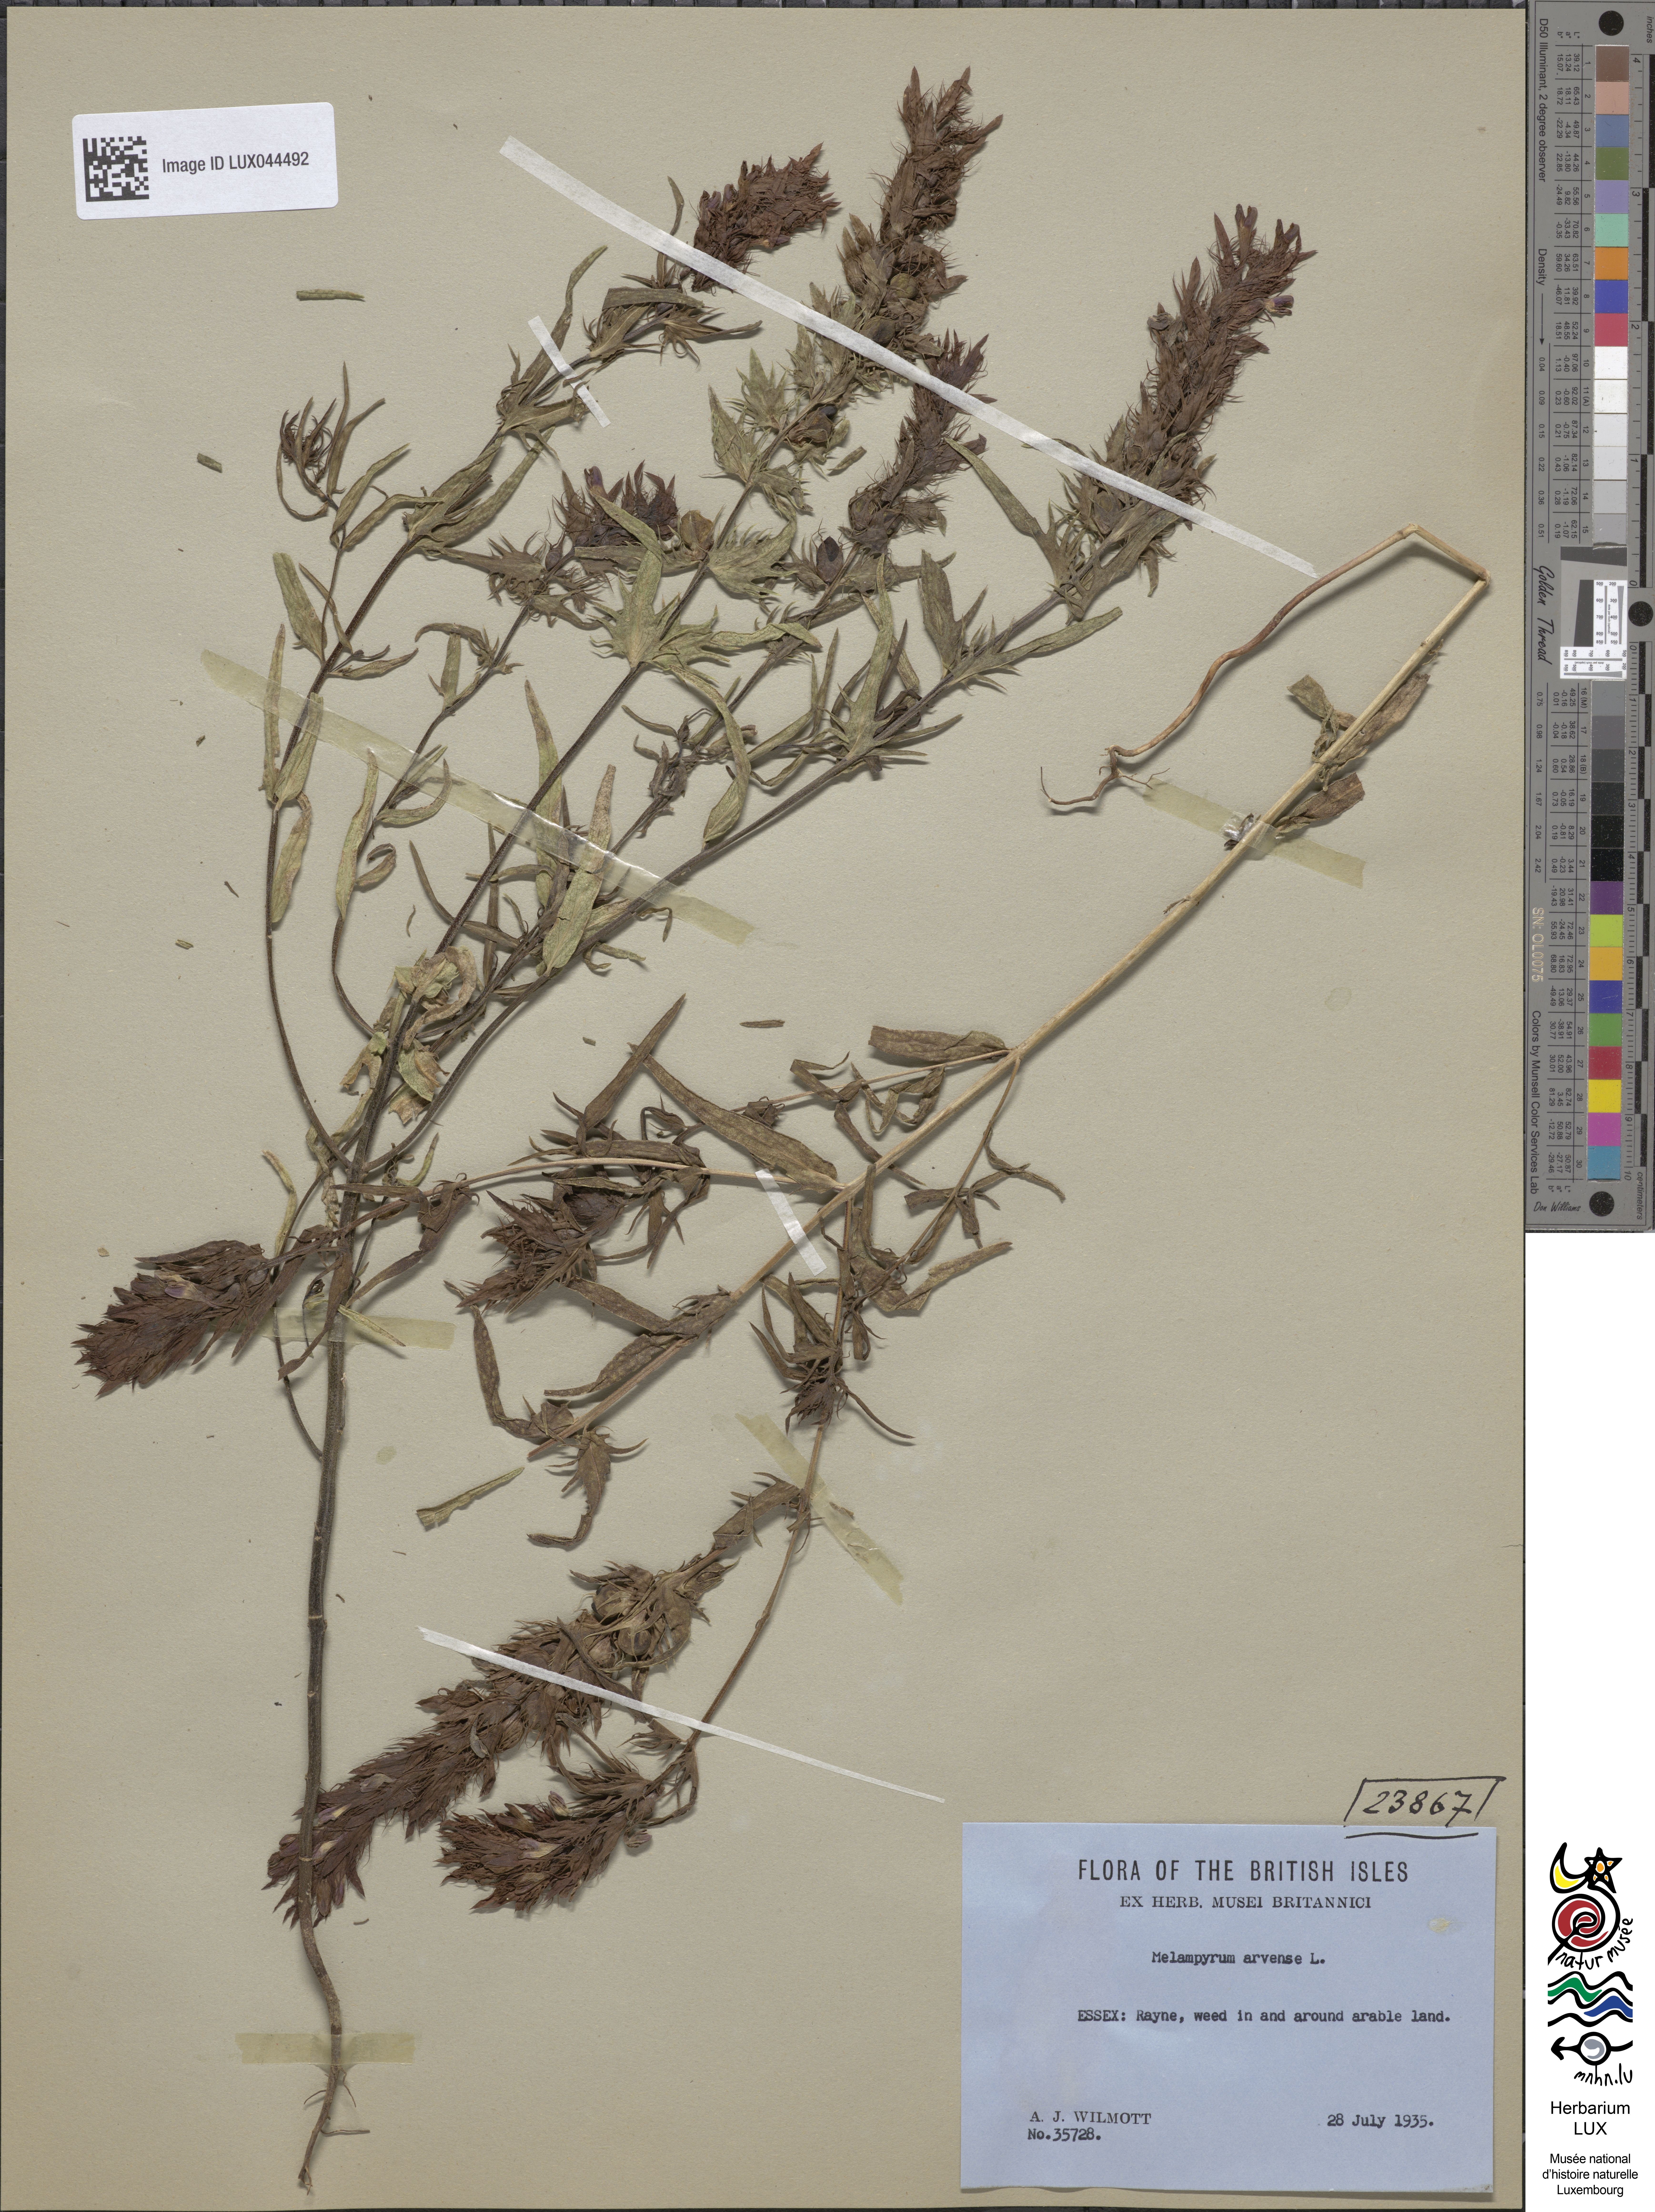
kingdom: Plantae
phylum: Tracheophyta
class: Magnoliopsida
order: Lamiales
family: Orobanchaceae
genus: Melampyrum
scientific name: Melampyrum arvense
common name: Field cow-wheat
